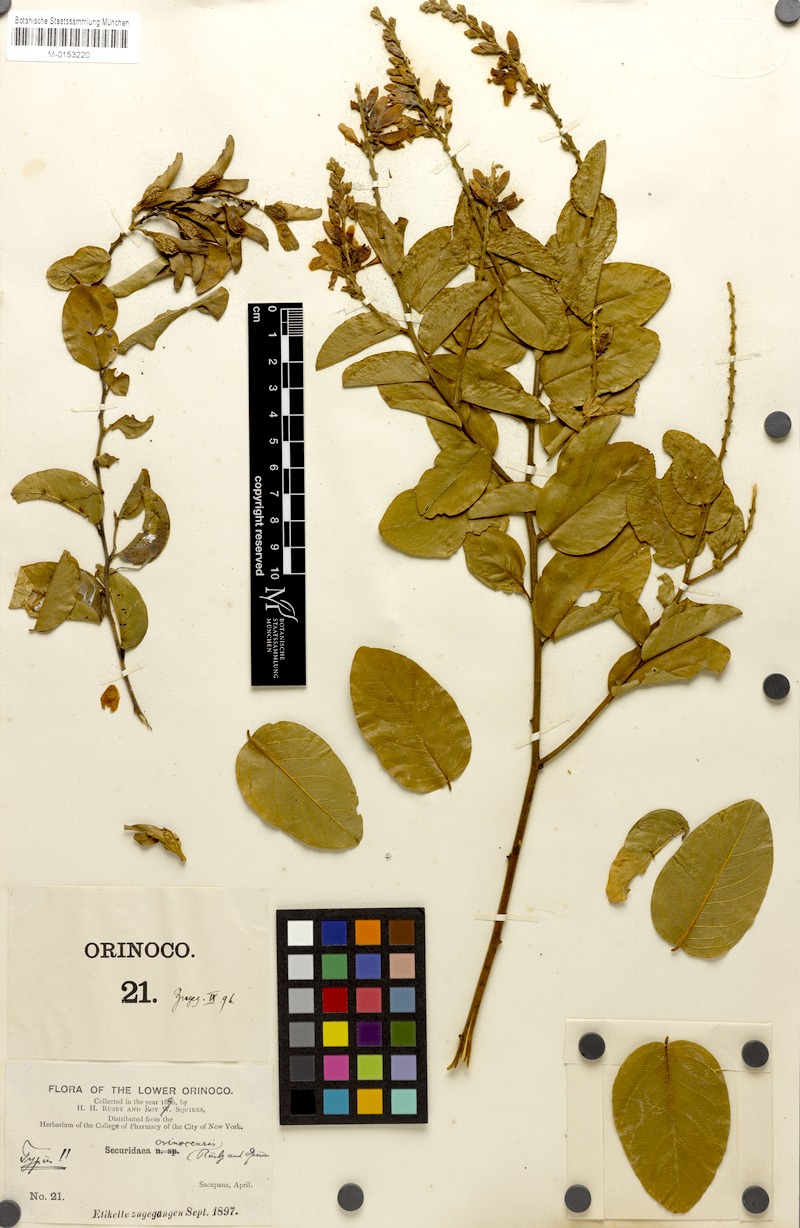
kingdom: Plantae
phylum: Tracheophyta
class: Magnoliopsida
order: Fabales
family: Polygalaceae
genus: Securidaca
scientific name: Securidaca bialata
